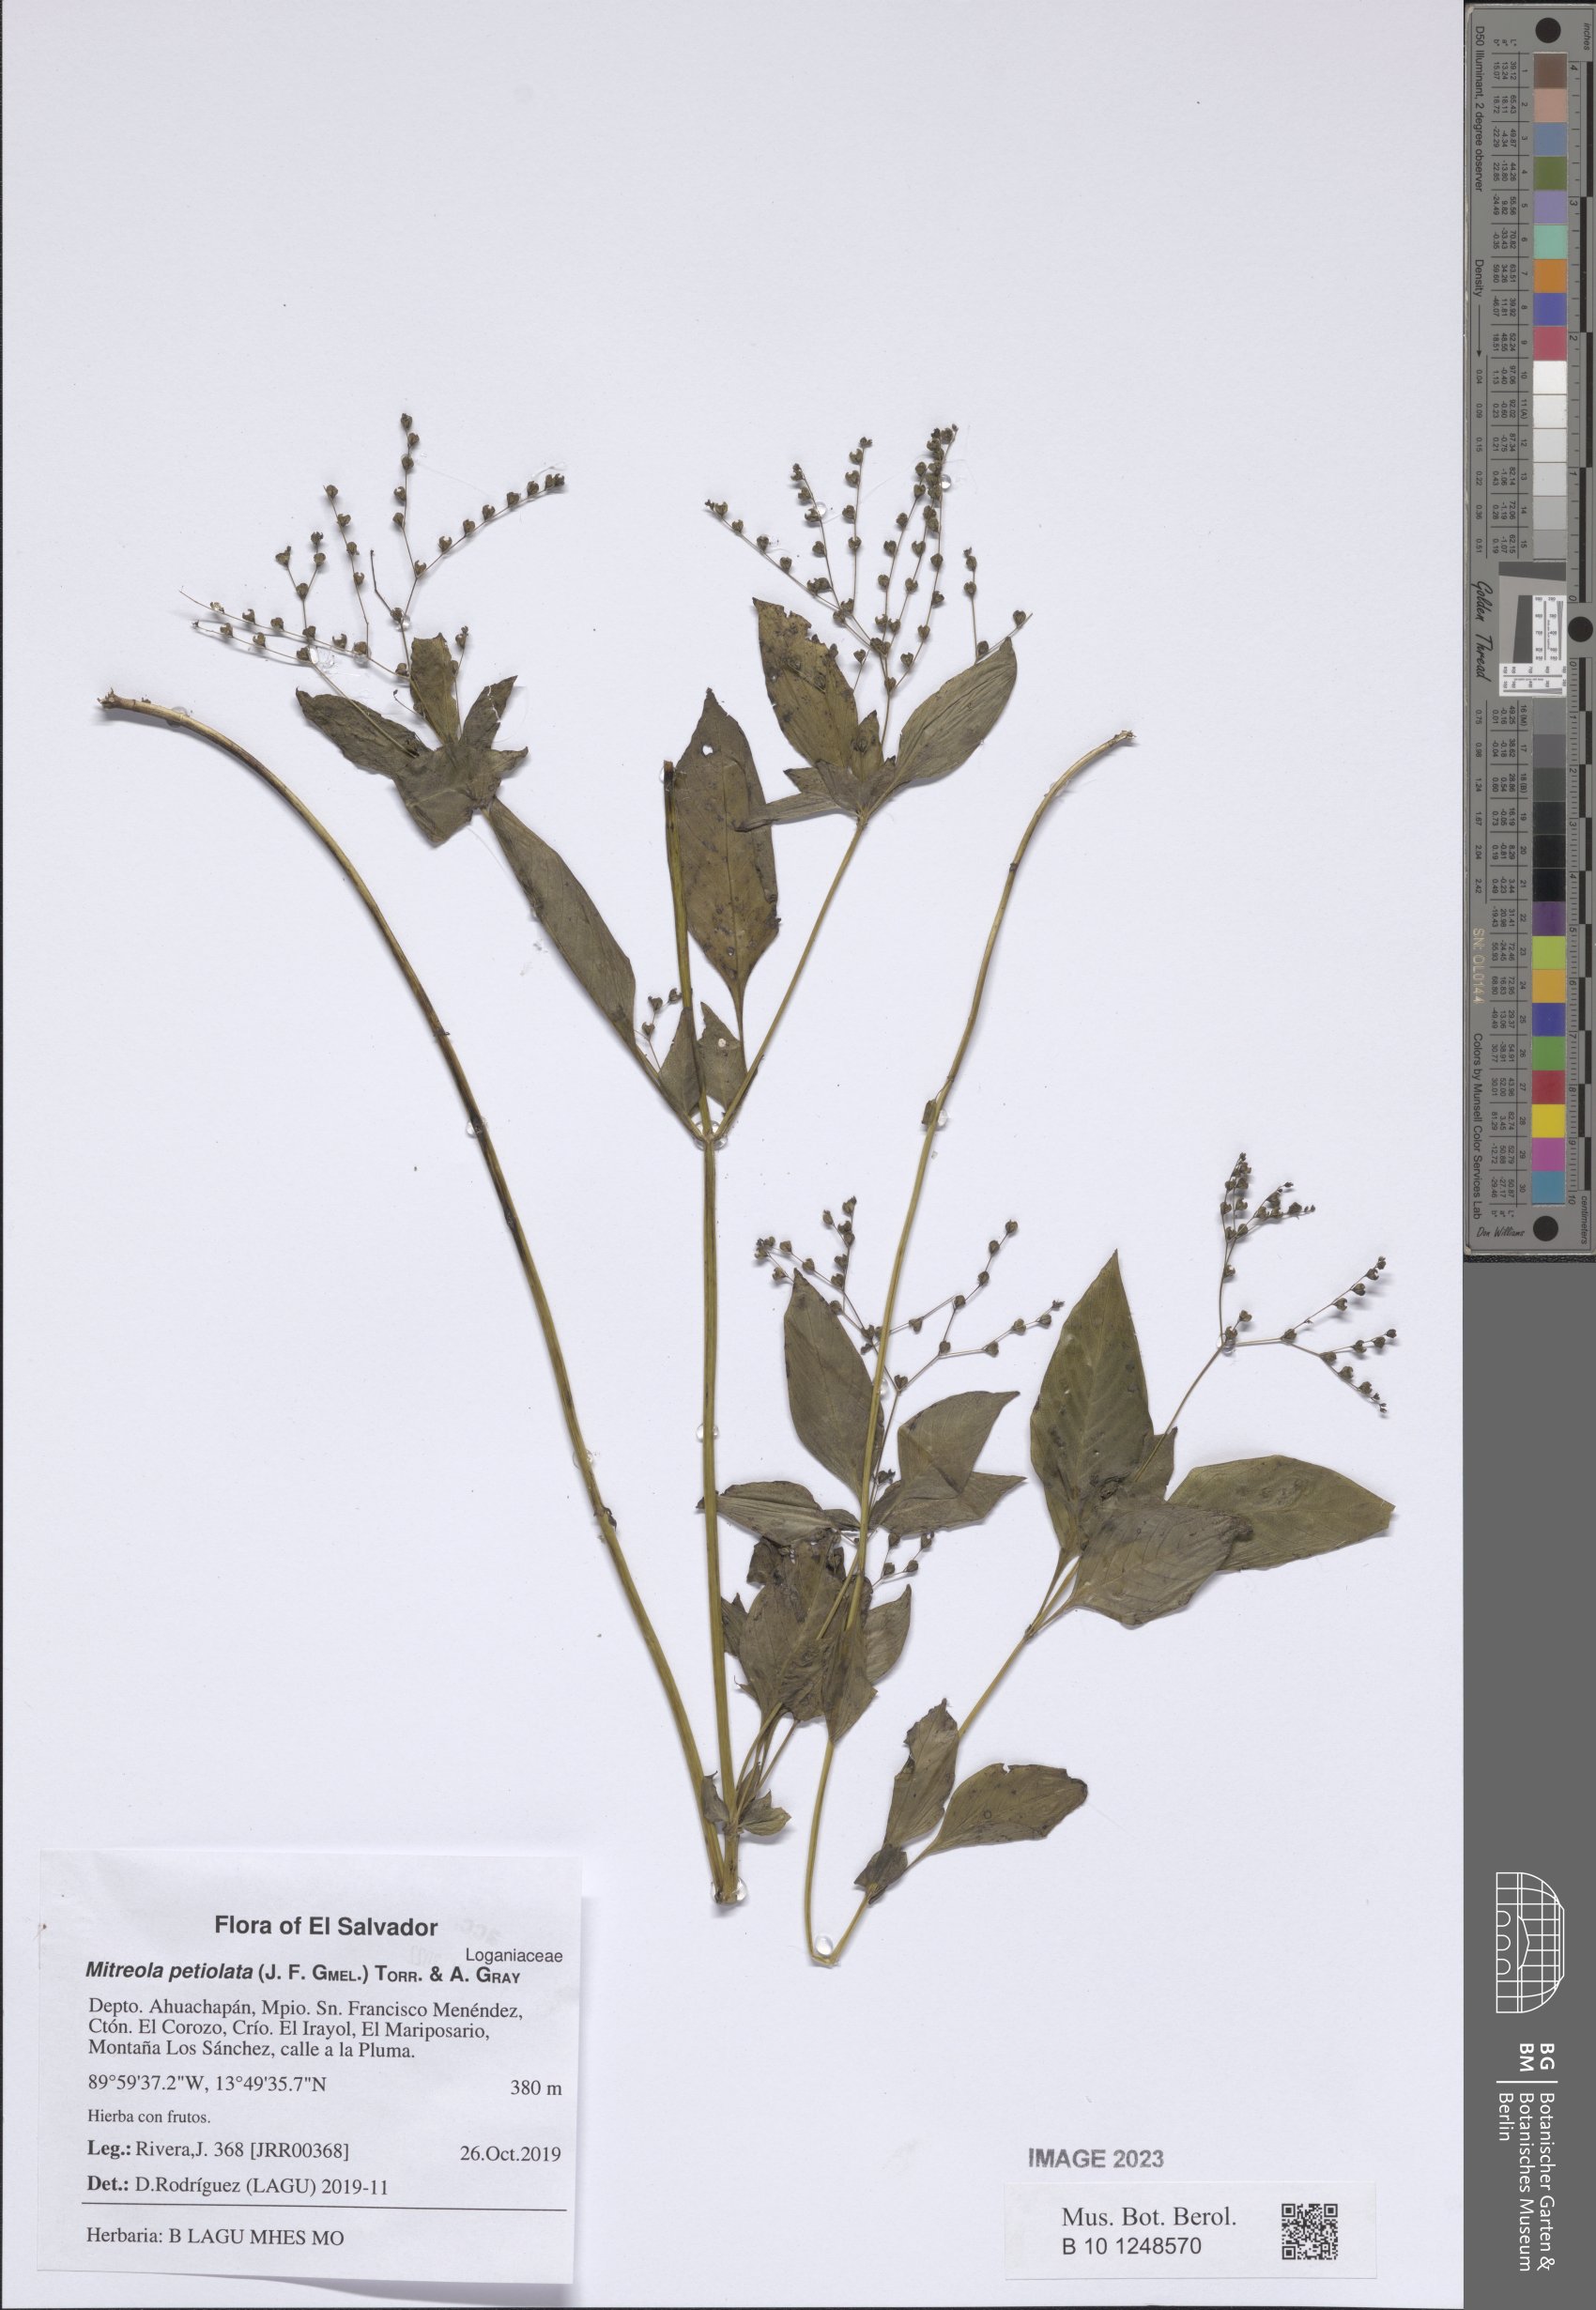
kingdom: Plantae
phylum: Tracheophyta
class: Magnoliopsida
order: Gentianales
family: Loganiaceae
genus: Mitreola
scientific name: Mitreola petiolata
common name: Lax hornpod
